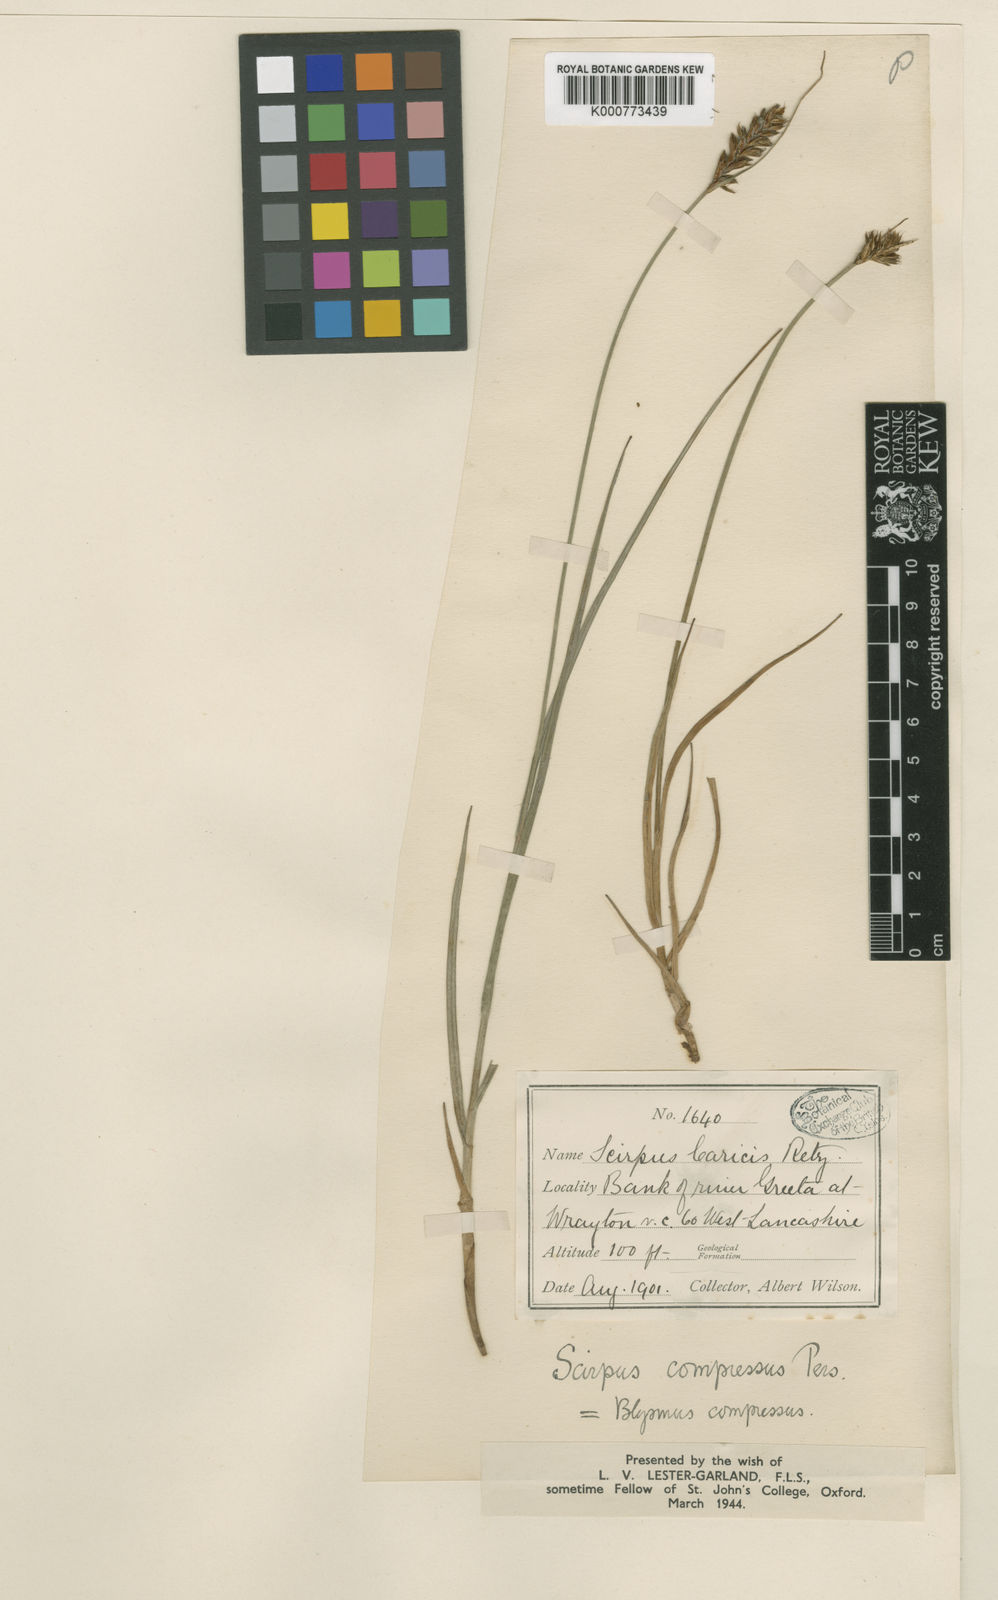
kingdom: Plantae
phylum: Tracheophyta
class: Liliopsida
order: Poales
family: Cyperaceae
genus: Blysmus
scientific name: Blysmus compressus
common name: Flat-sedge
